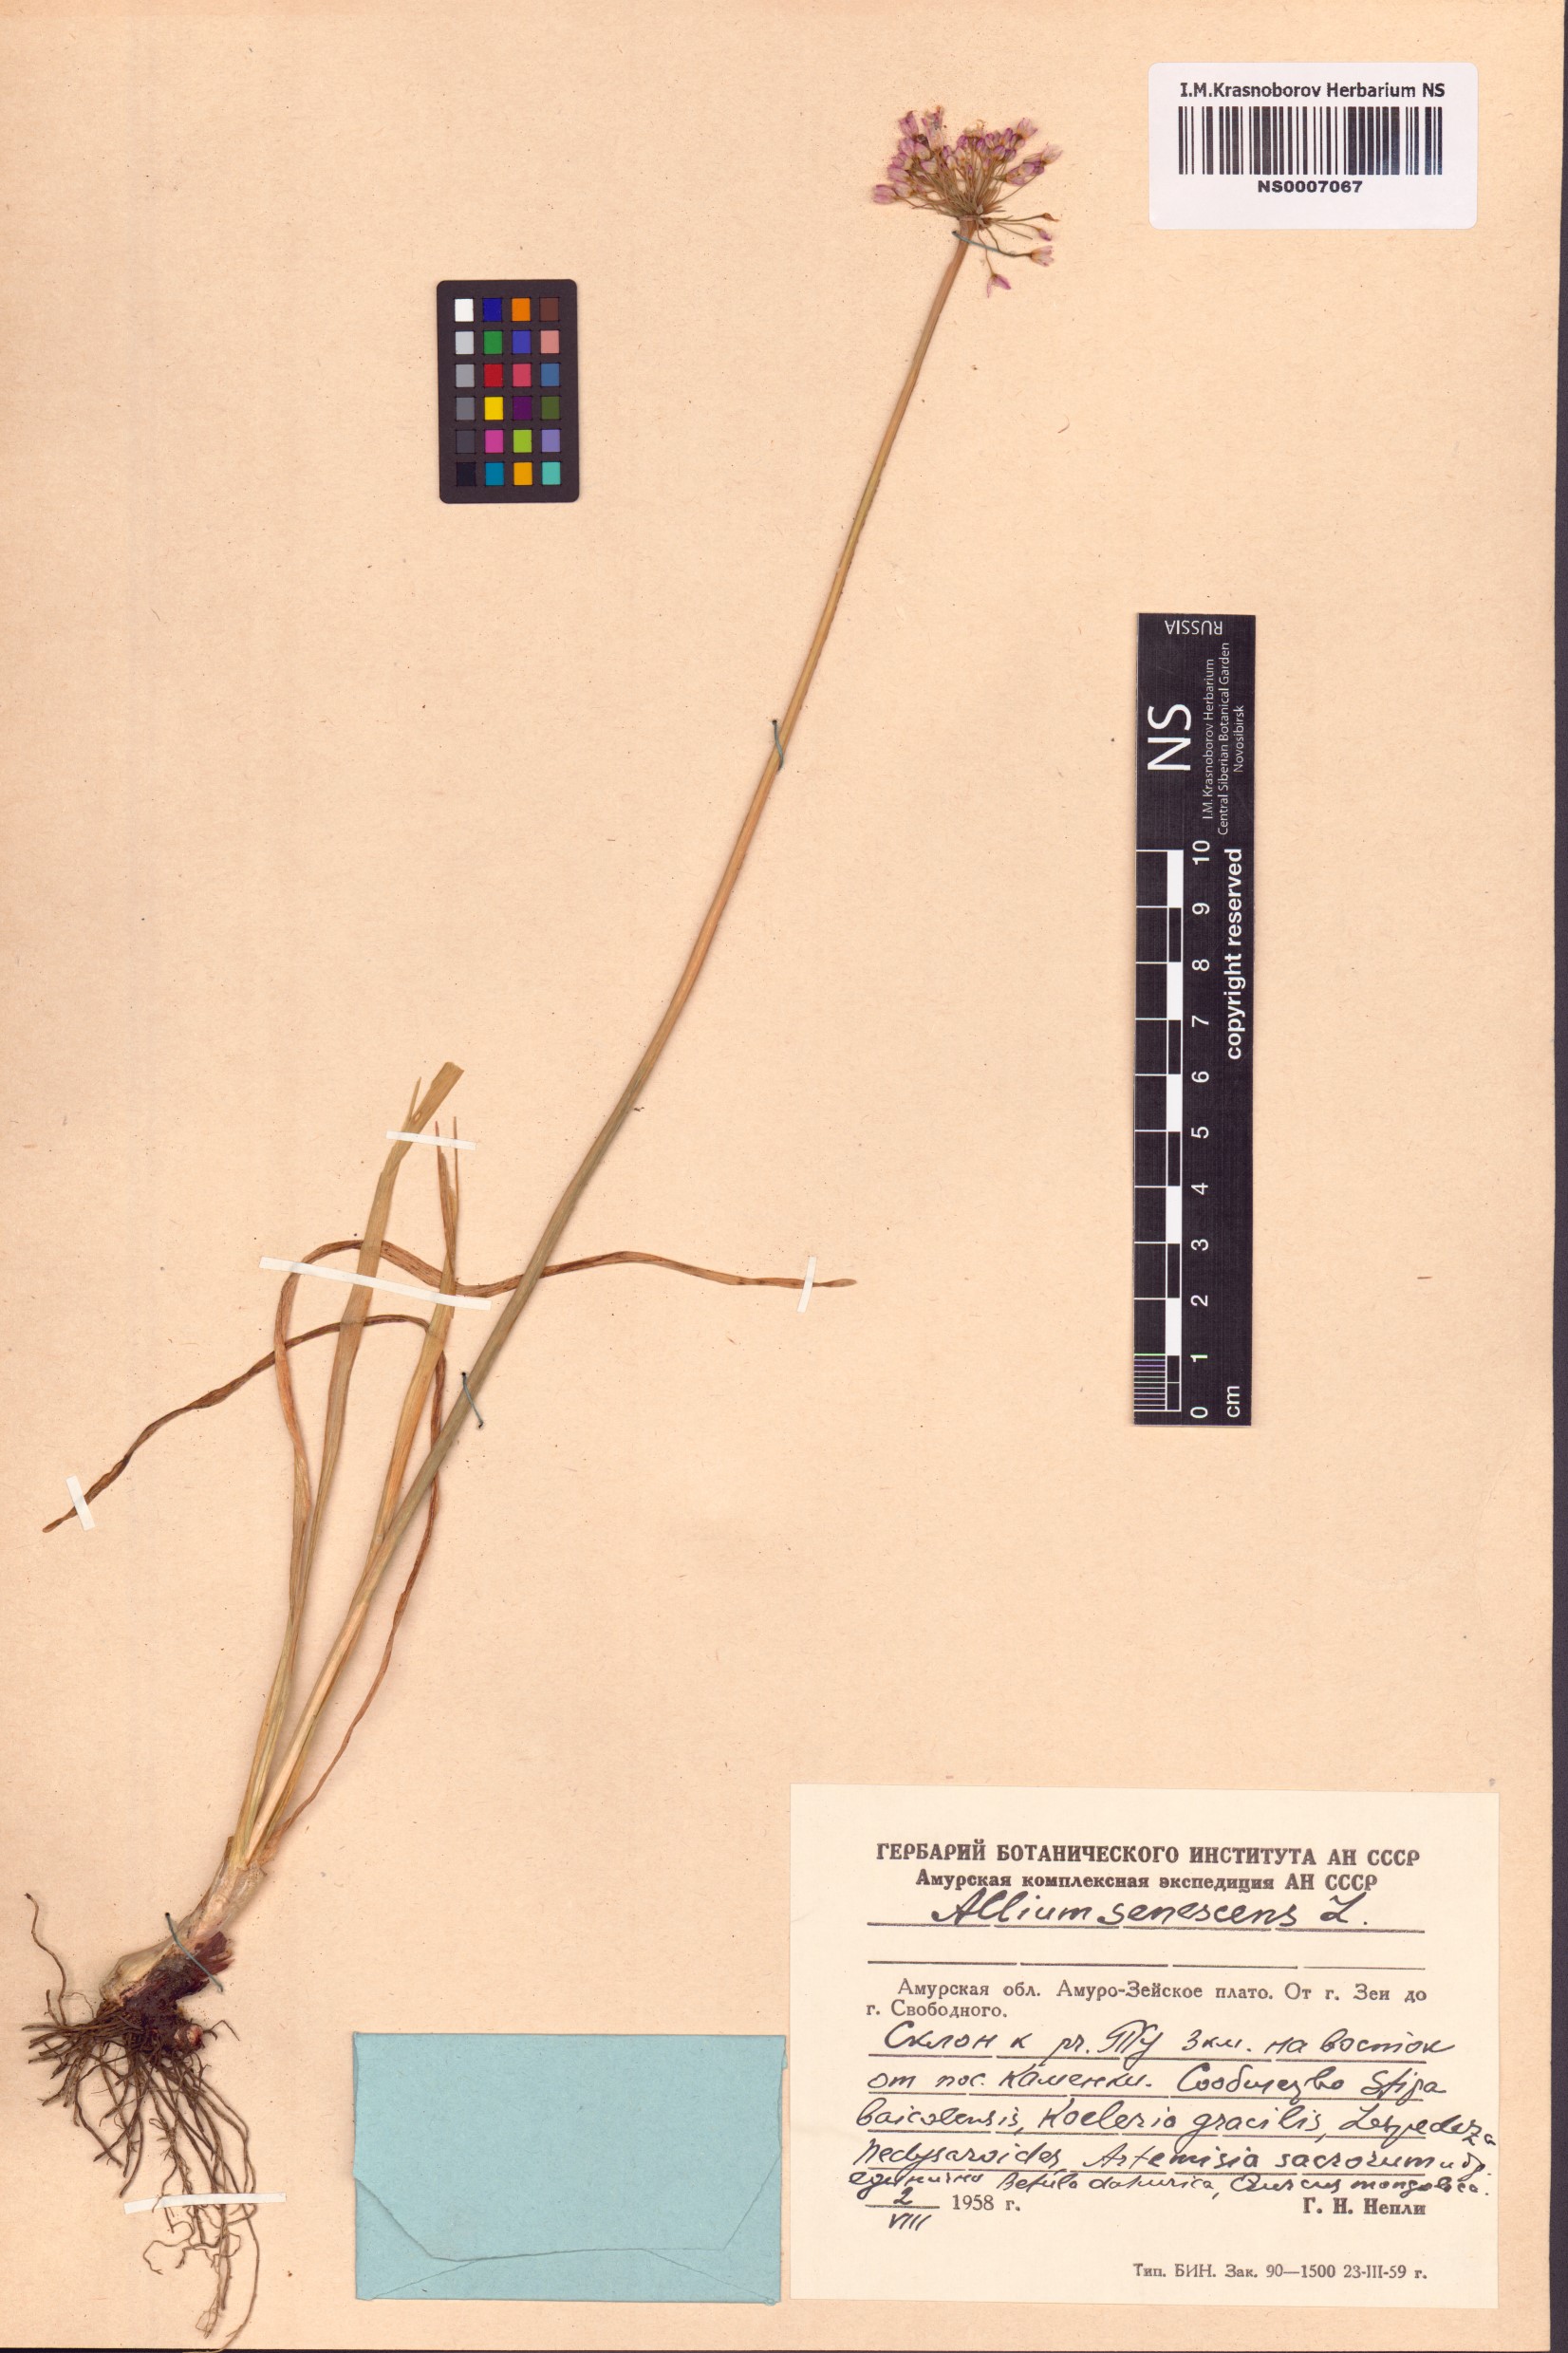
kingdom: Plantae
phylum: Tracheophyta
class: Liliopsida
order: Asparagales
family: Amaryllidaceae
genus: Allium
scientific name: Allium spurium
